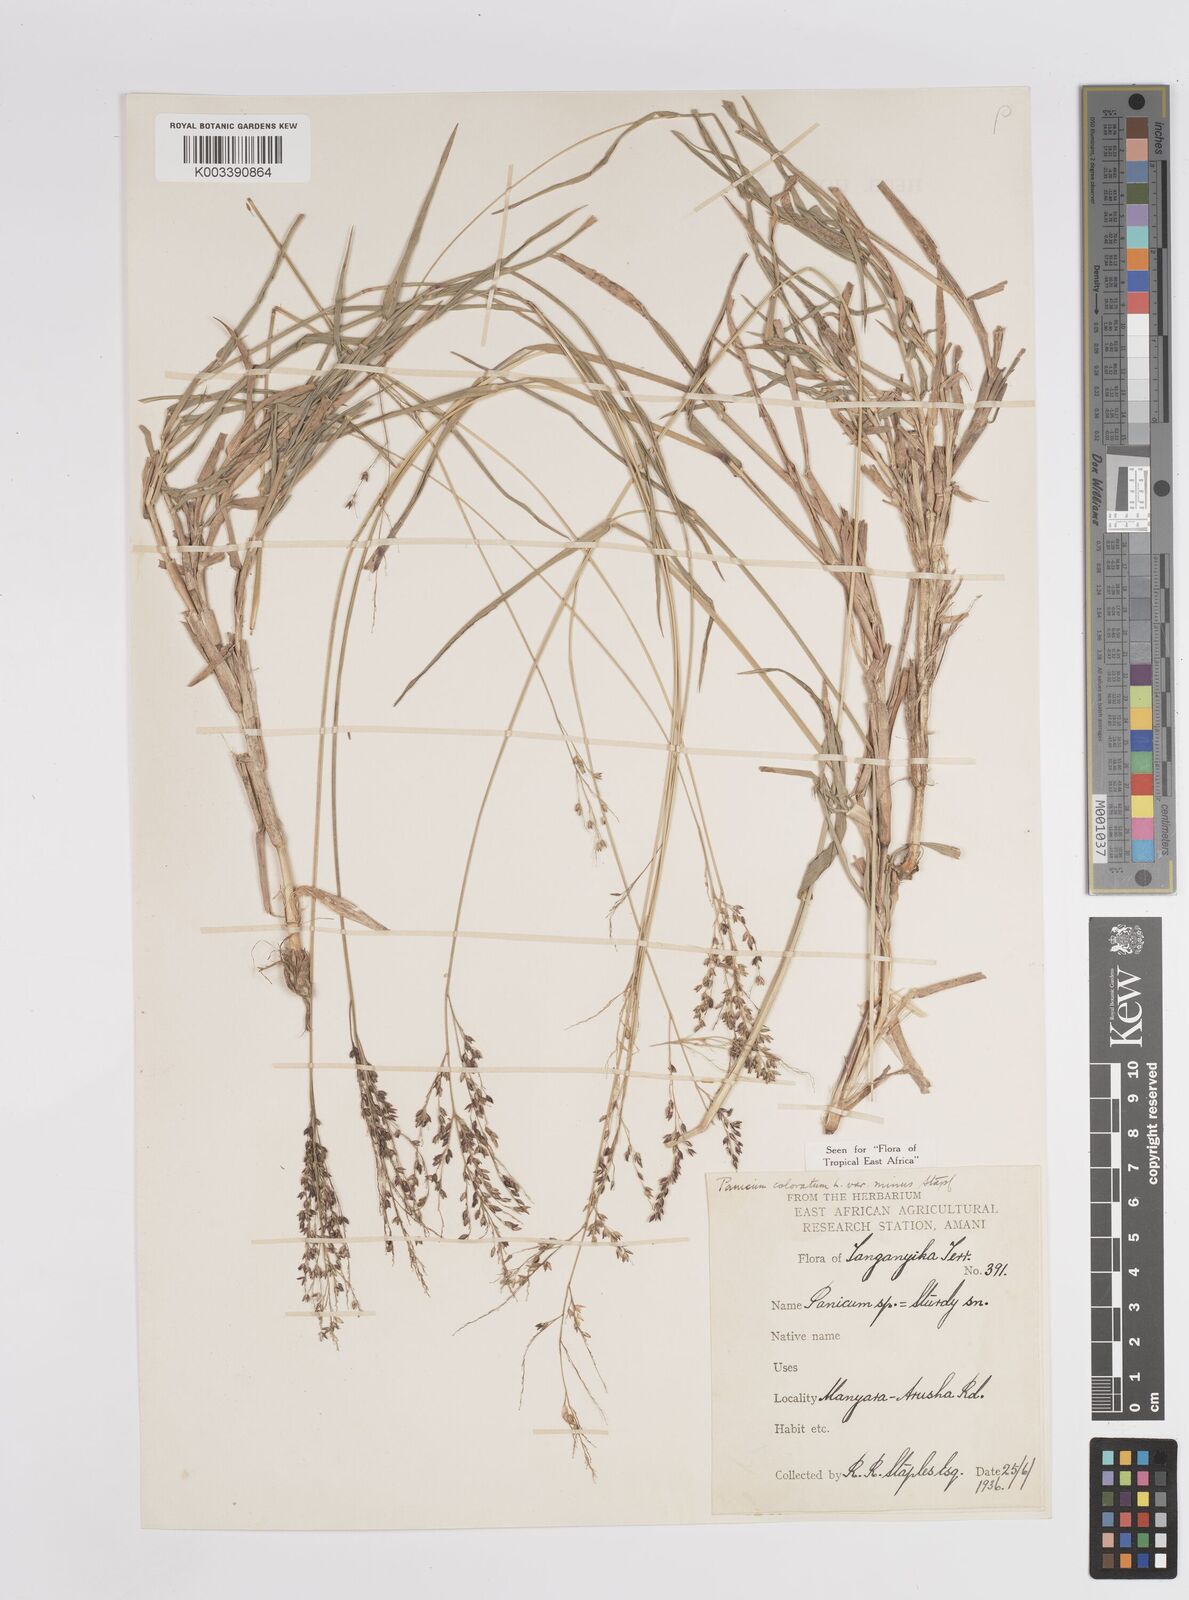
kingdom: Plantae
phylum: Tracheophyta
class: Liliopsida
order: Poales
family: Poaceae
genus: Panicum
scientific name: Panicum coloratum
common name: Kleingrass
